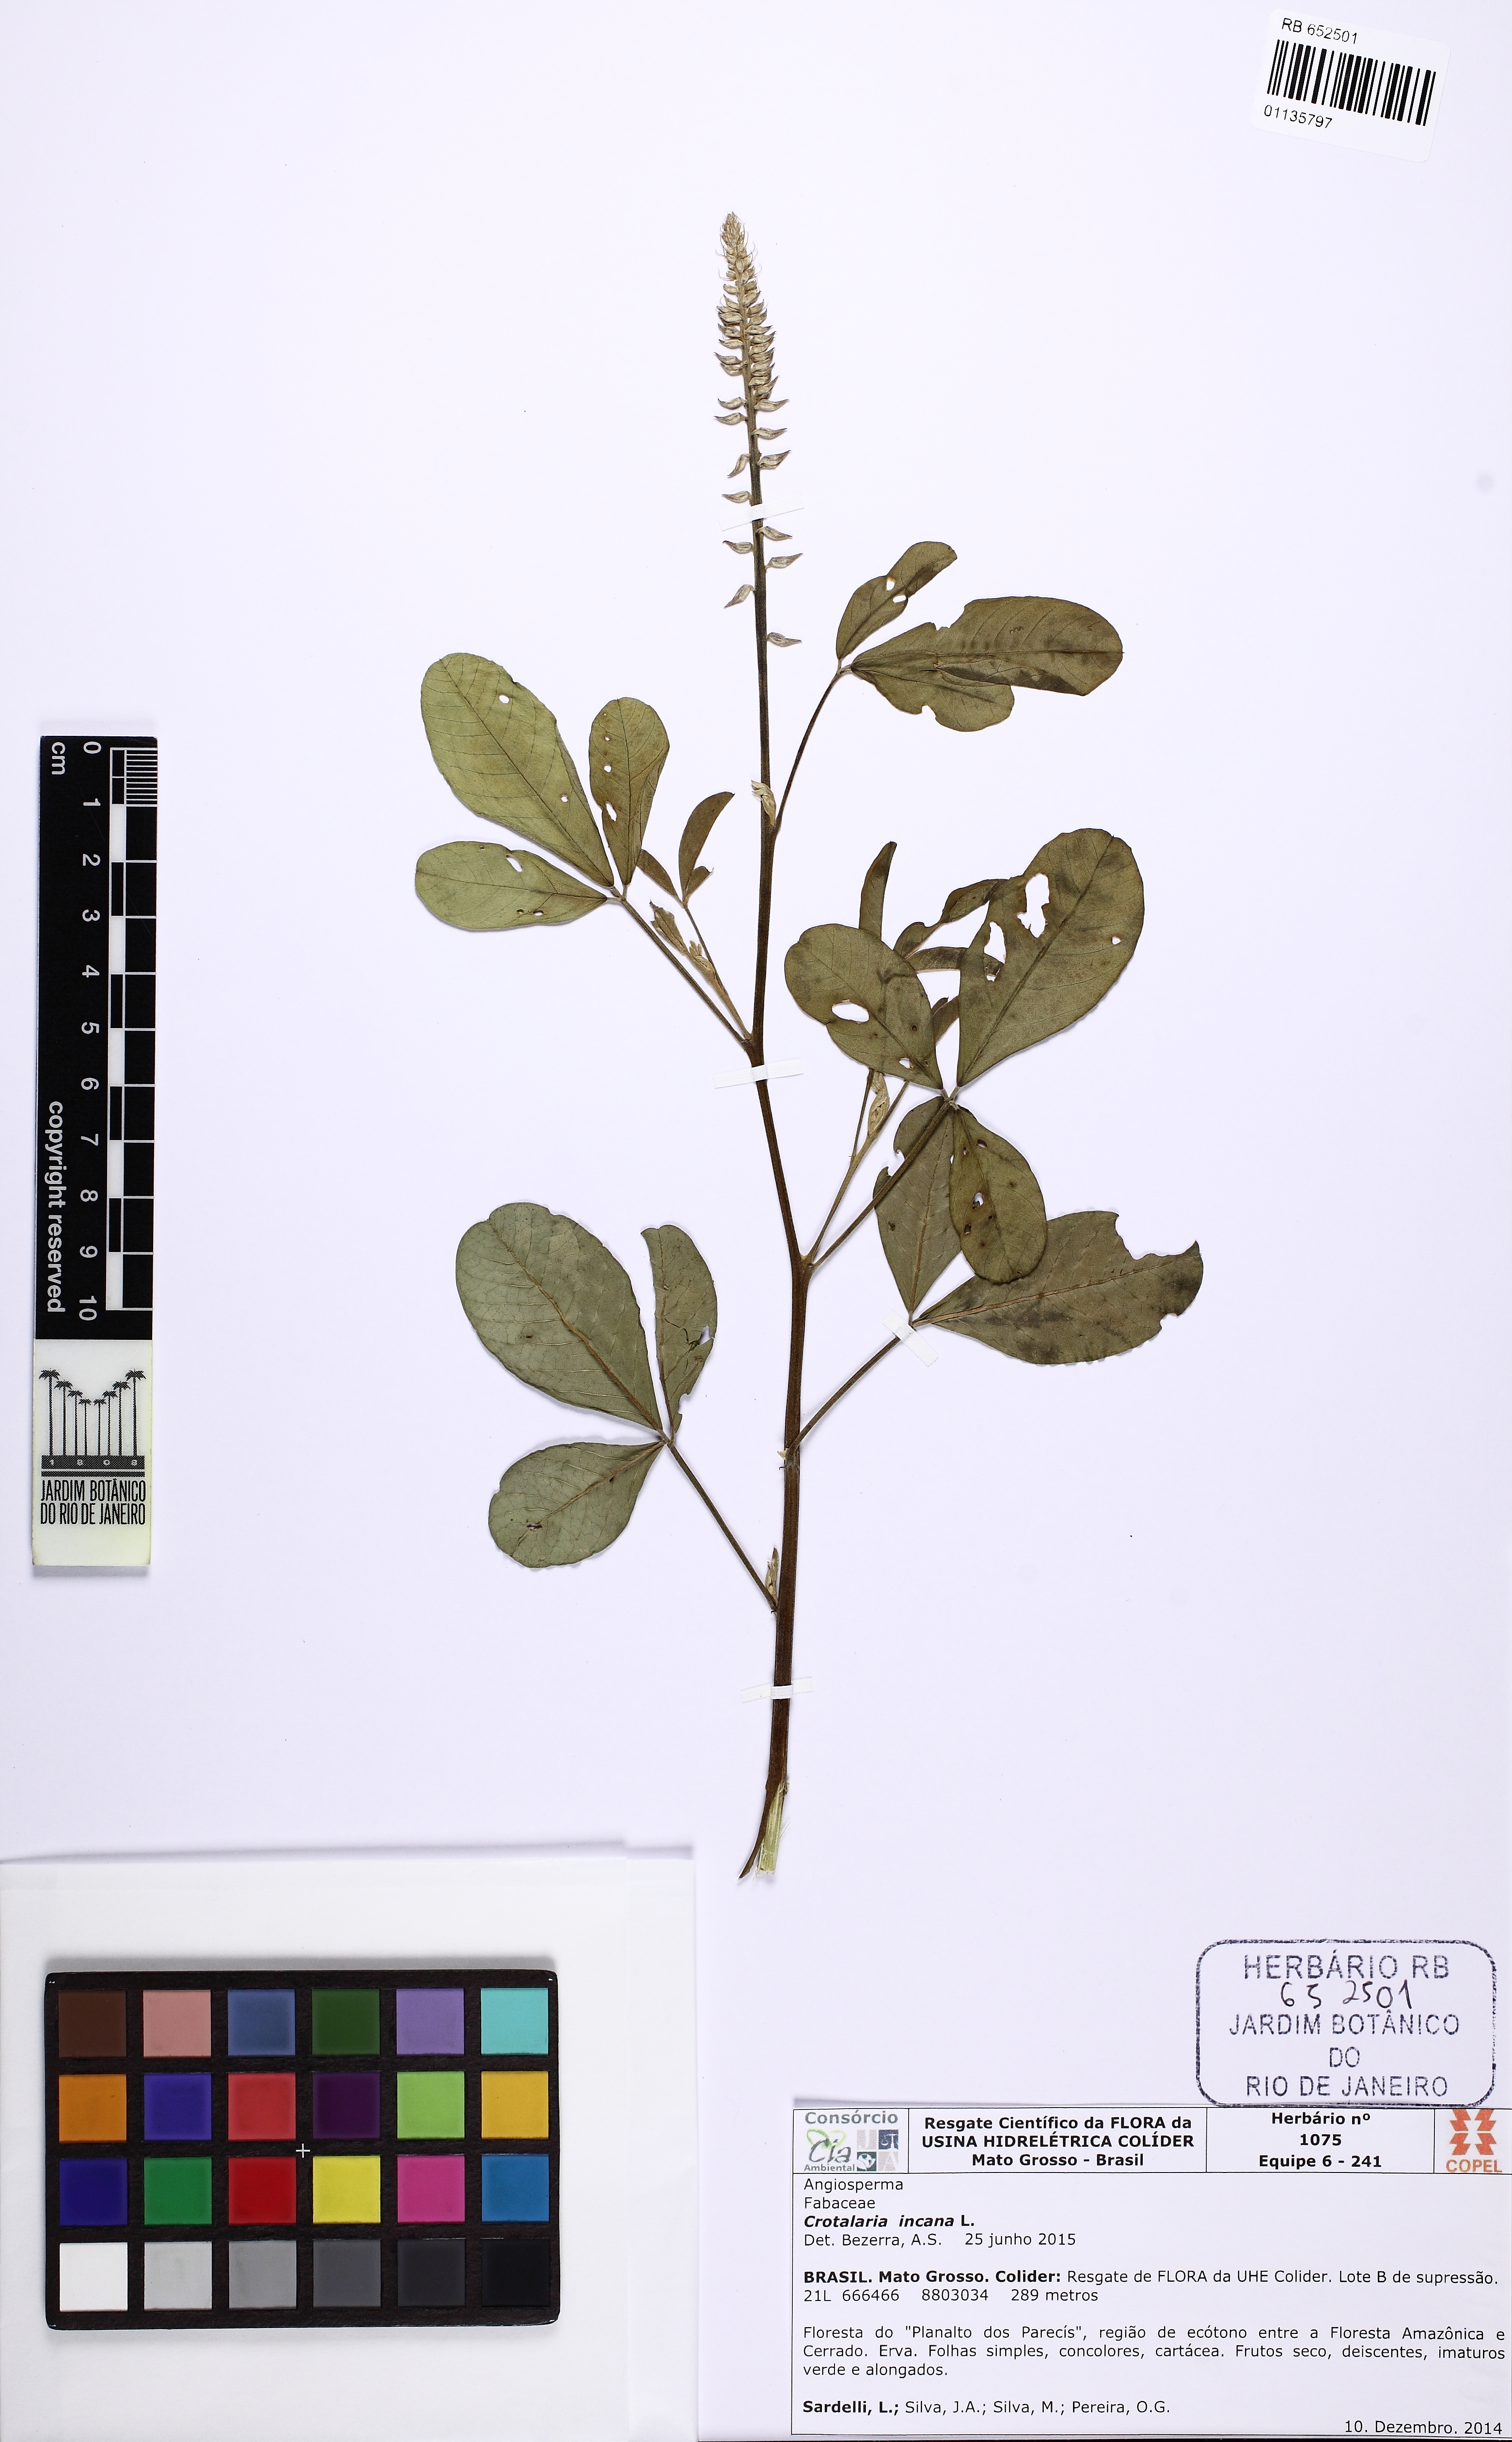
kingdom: Plantae
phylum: Tracheophyta
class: Magnoliopsida
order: Fabales
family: Fabaceae
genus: Crotalaria
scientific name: Crotalaria incana
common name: Shakeshake
